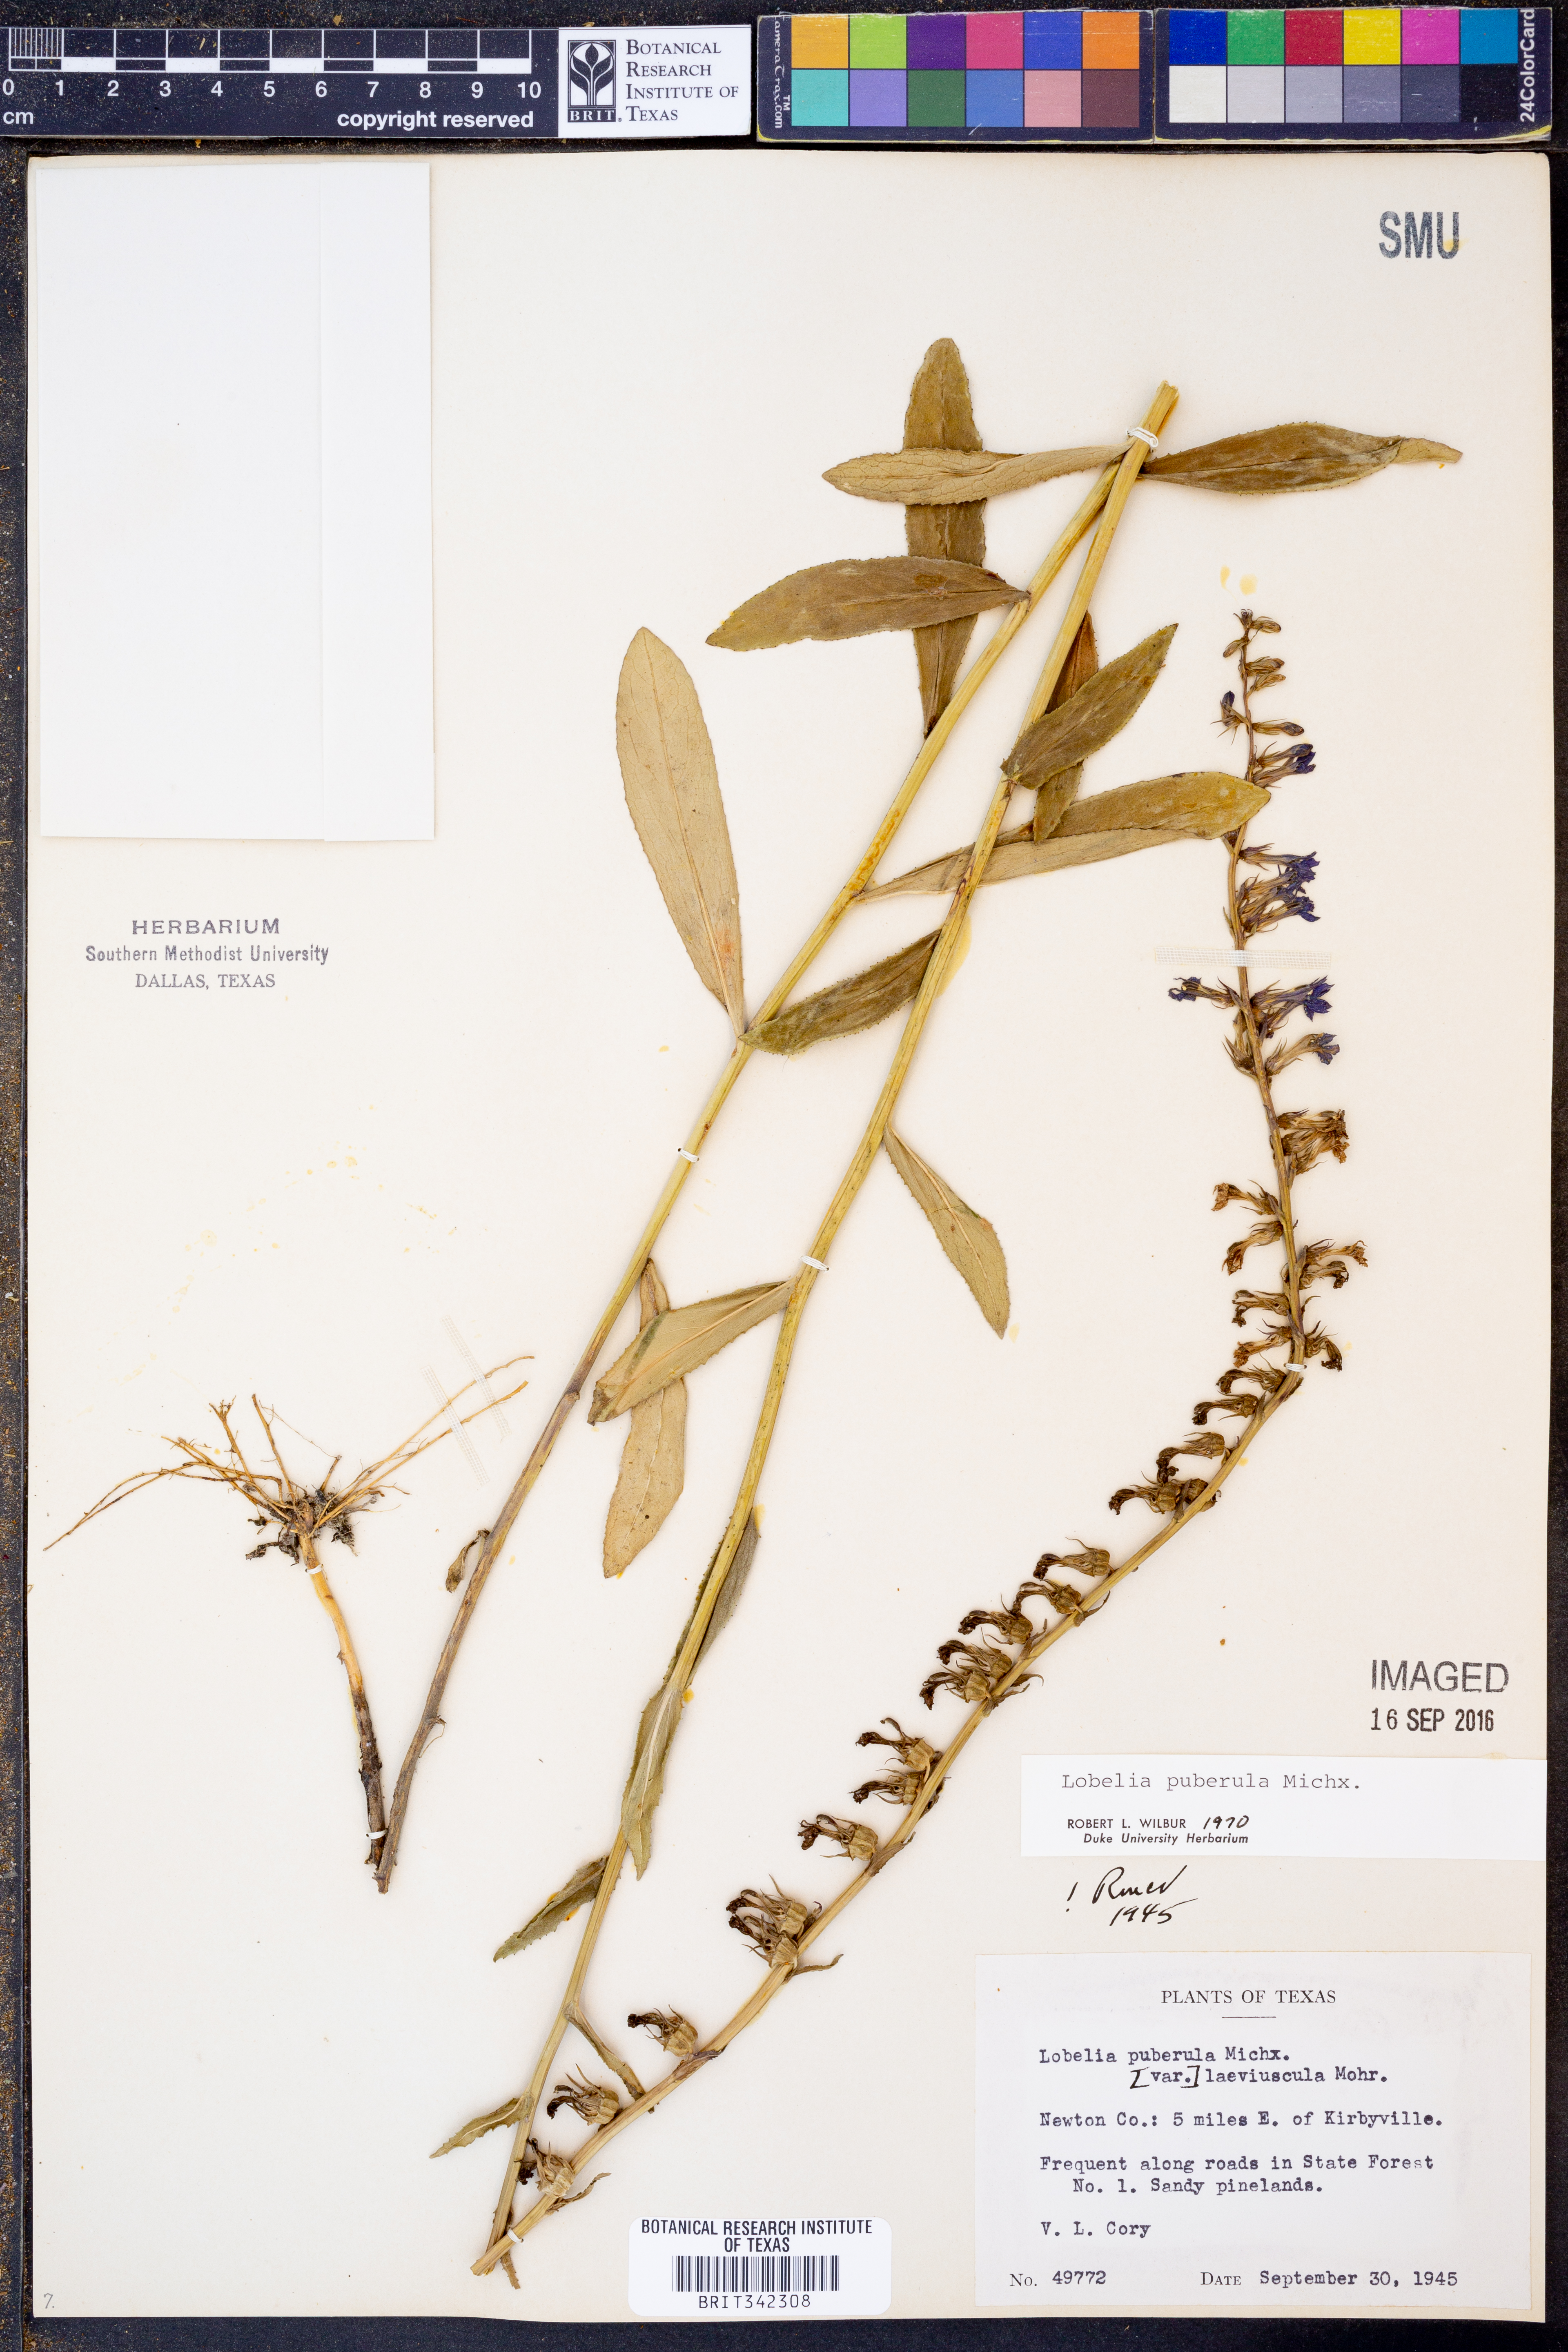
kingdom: Plantae
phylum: Tracheophyta
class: Magnoliopsida
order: Asterales
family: Campanulaceae
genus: Lobelia
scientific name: Lobelia puberula
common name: Purple dewdrop
